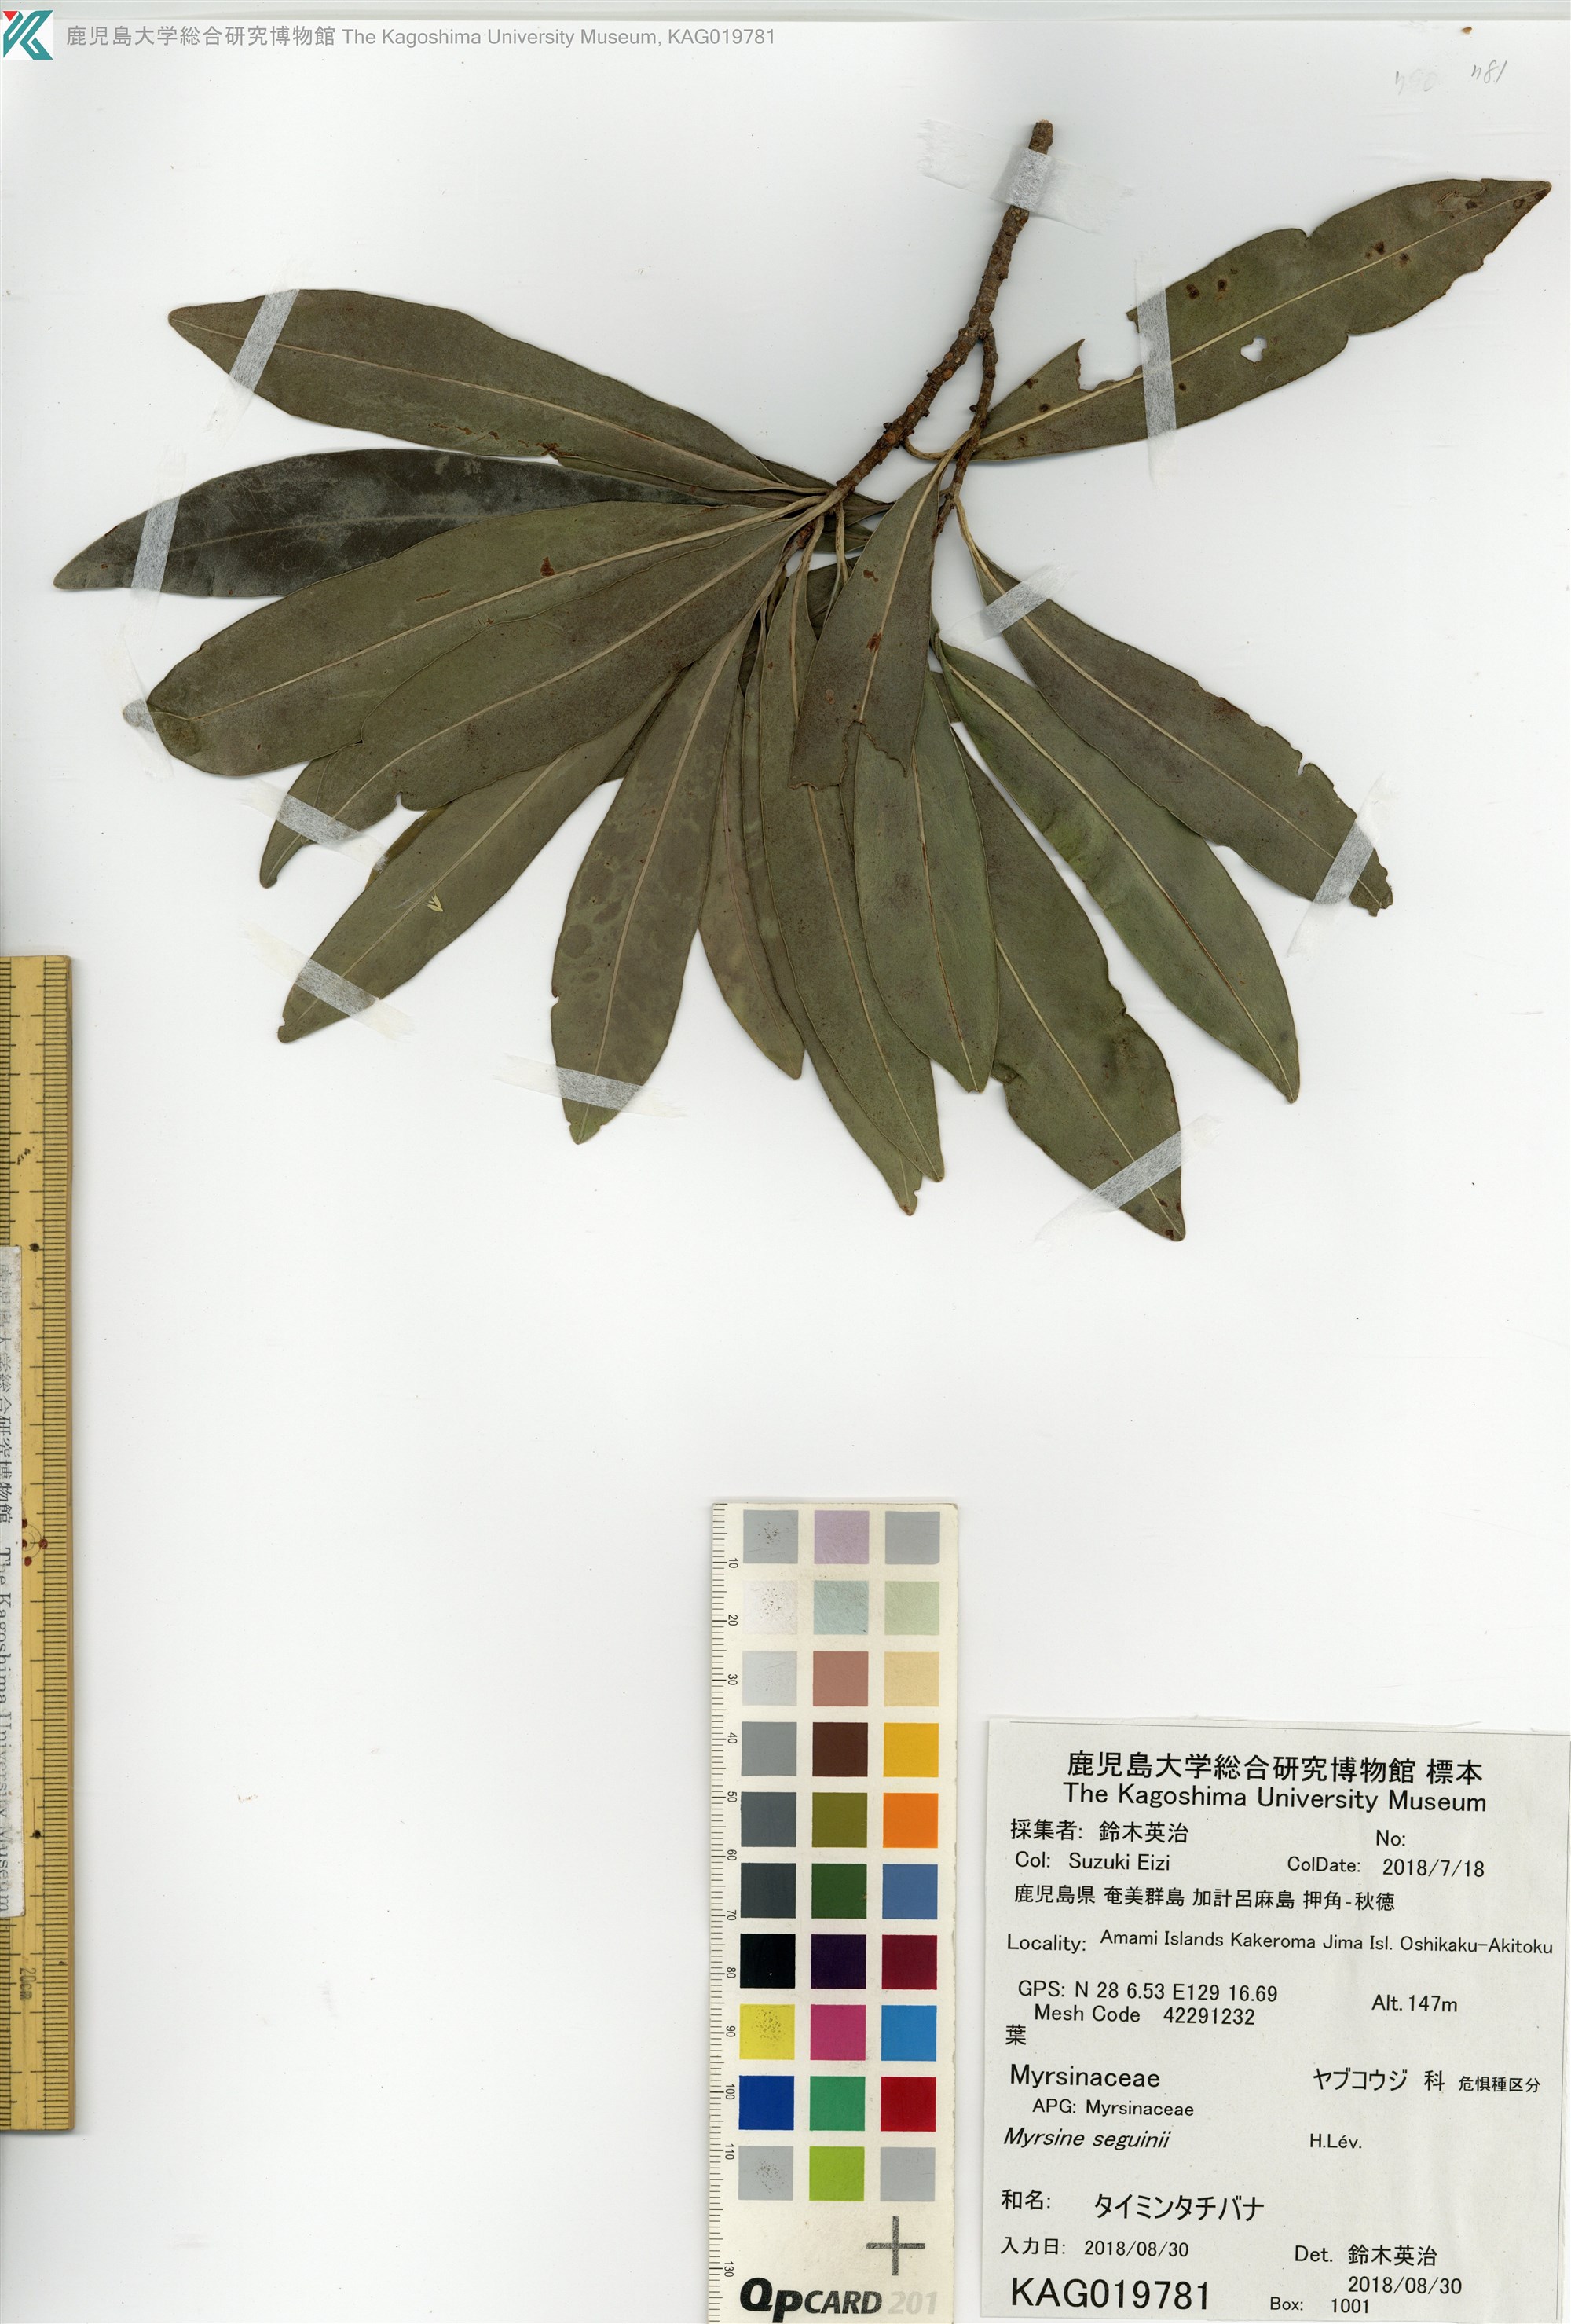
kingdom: Plantae
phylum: Tracheophyta
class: Magnoliopsida
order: Ericales
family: Primulaceae
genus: Myrsine
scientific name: Myrsine seguinii
